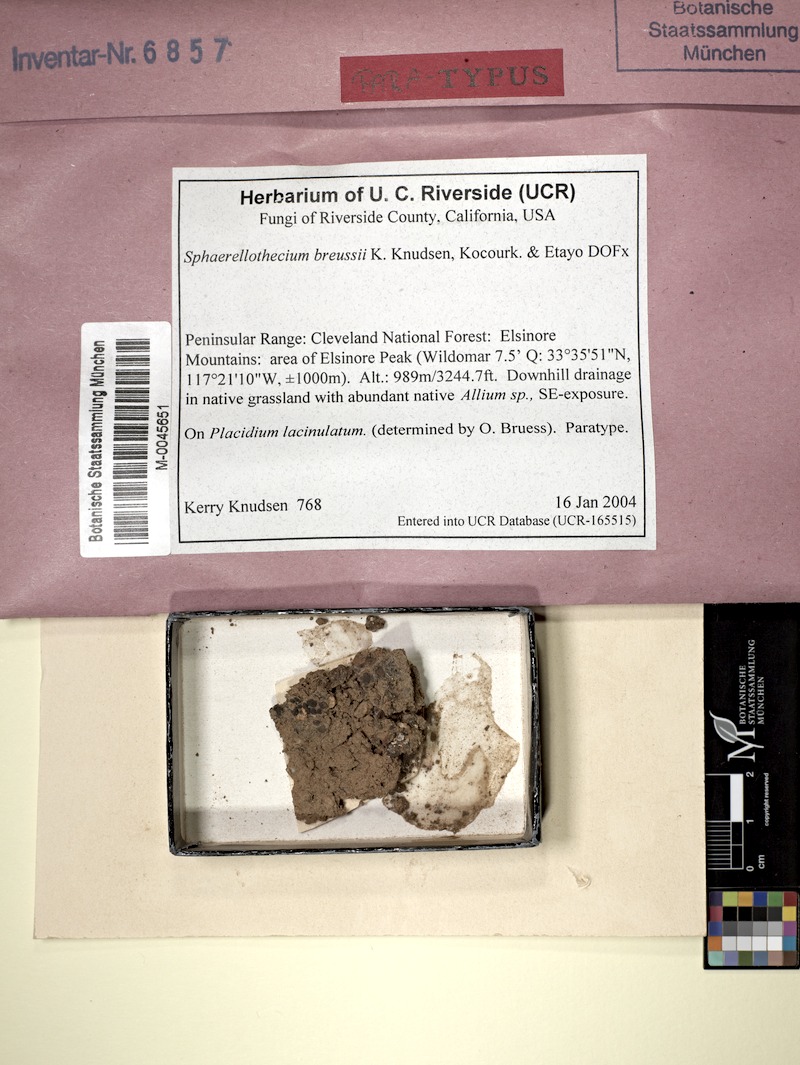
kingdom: Fungi
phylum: Ascomycota
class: Dothideomycetes
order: Mycosphaerellales
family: Mycosphaerellaceae
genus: Sphaerellothecium
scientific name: Sphaerellothecium breussii
